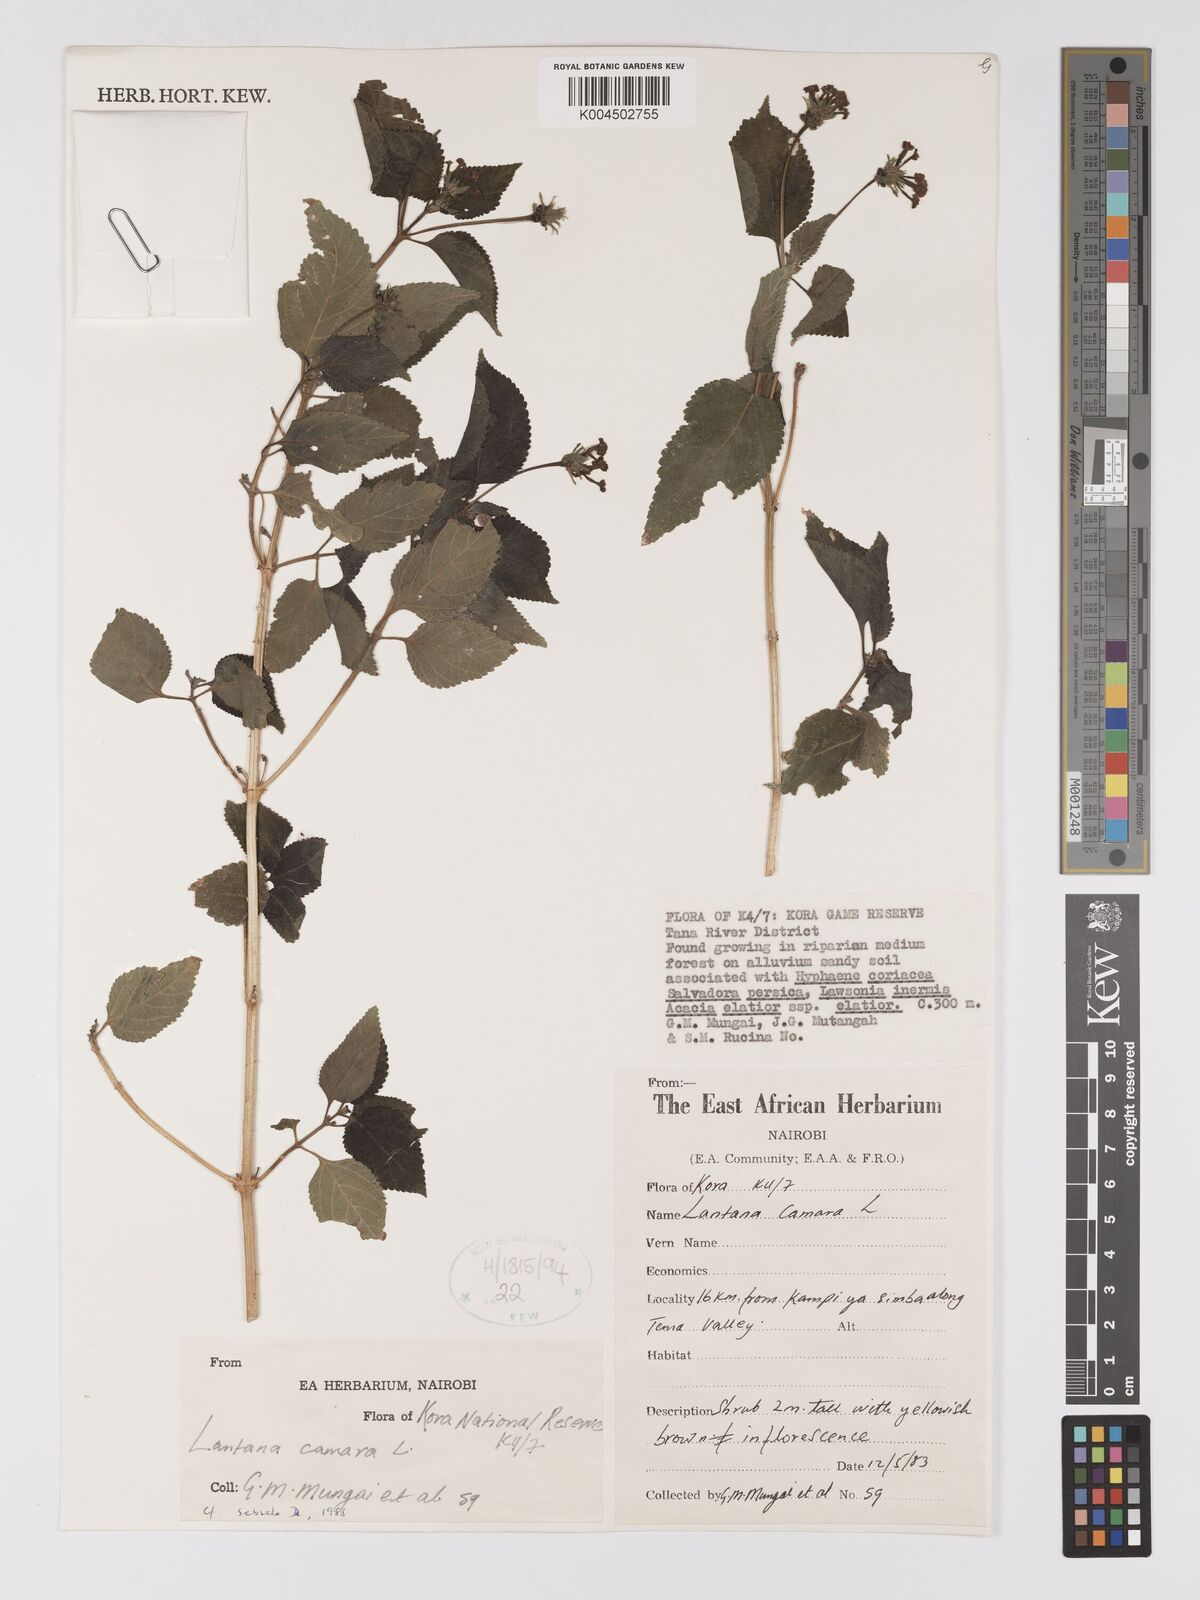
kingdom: Plantae
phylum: Tracheophyta
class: Magnoliopsida
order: Lamiales
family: Verbenaceae
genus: Lantana
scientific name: Lantana camara
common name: Lantana
